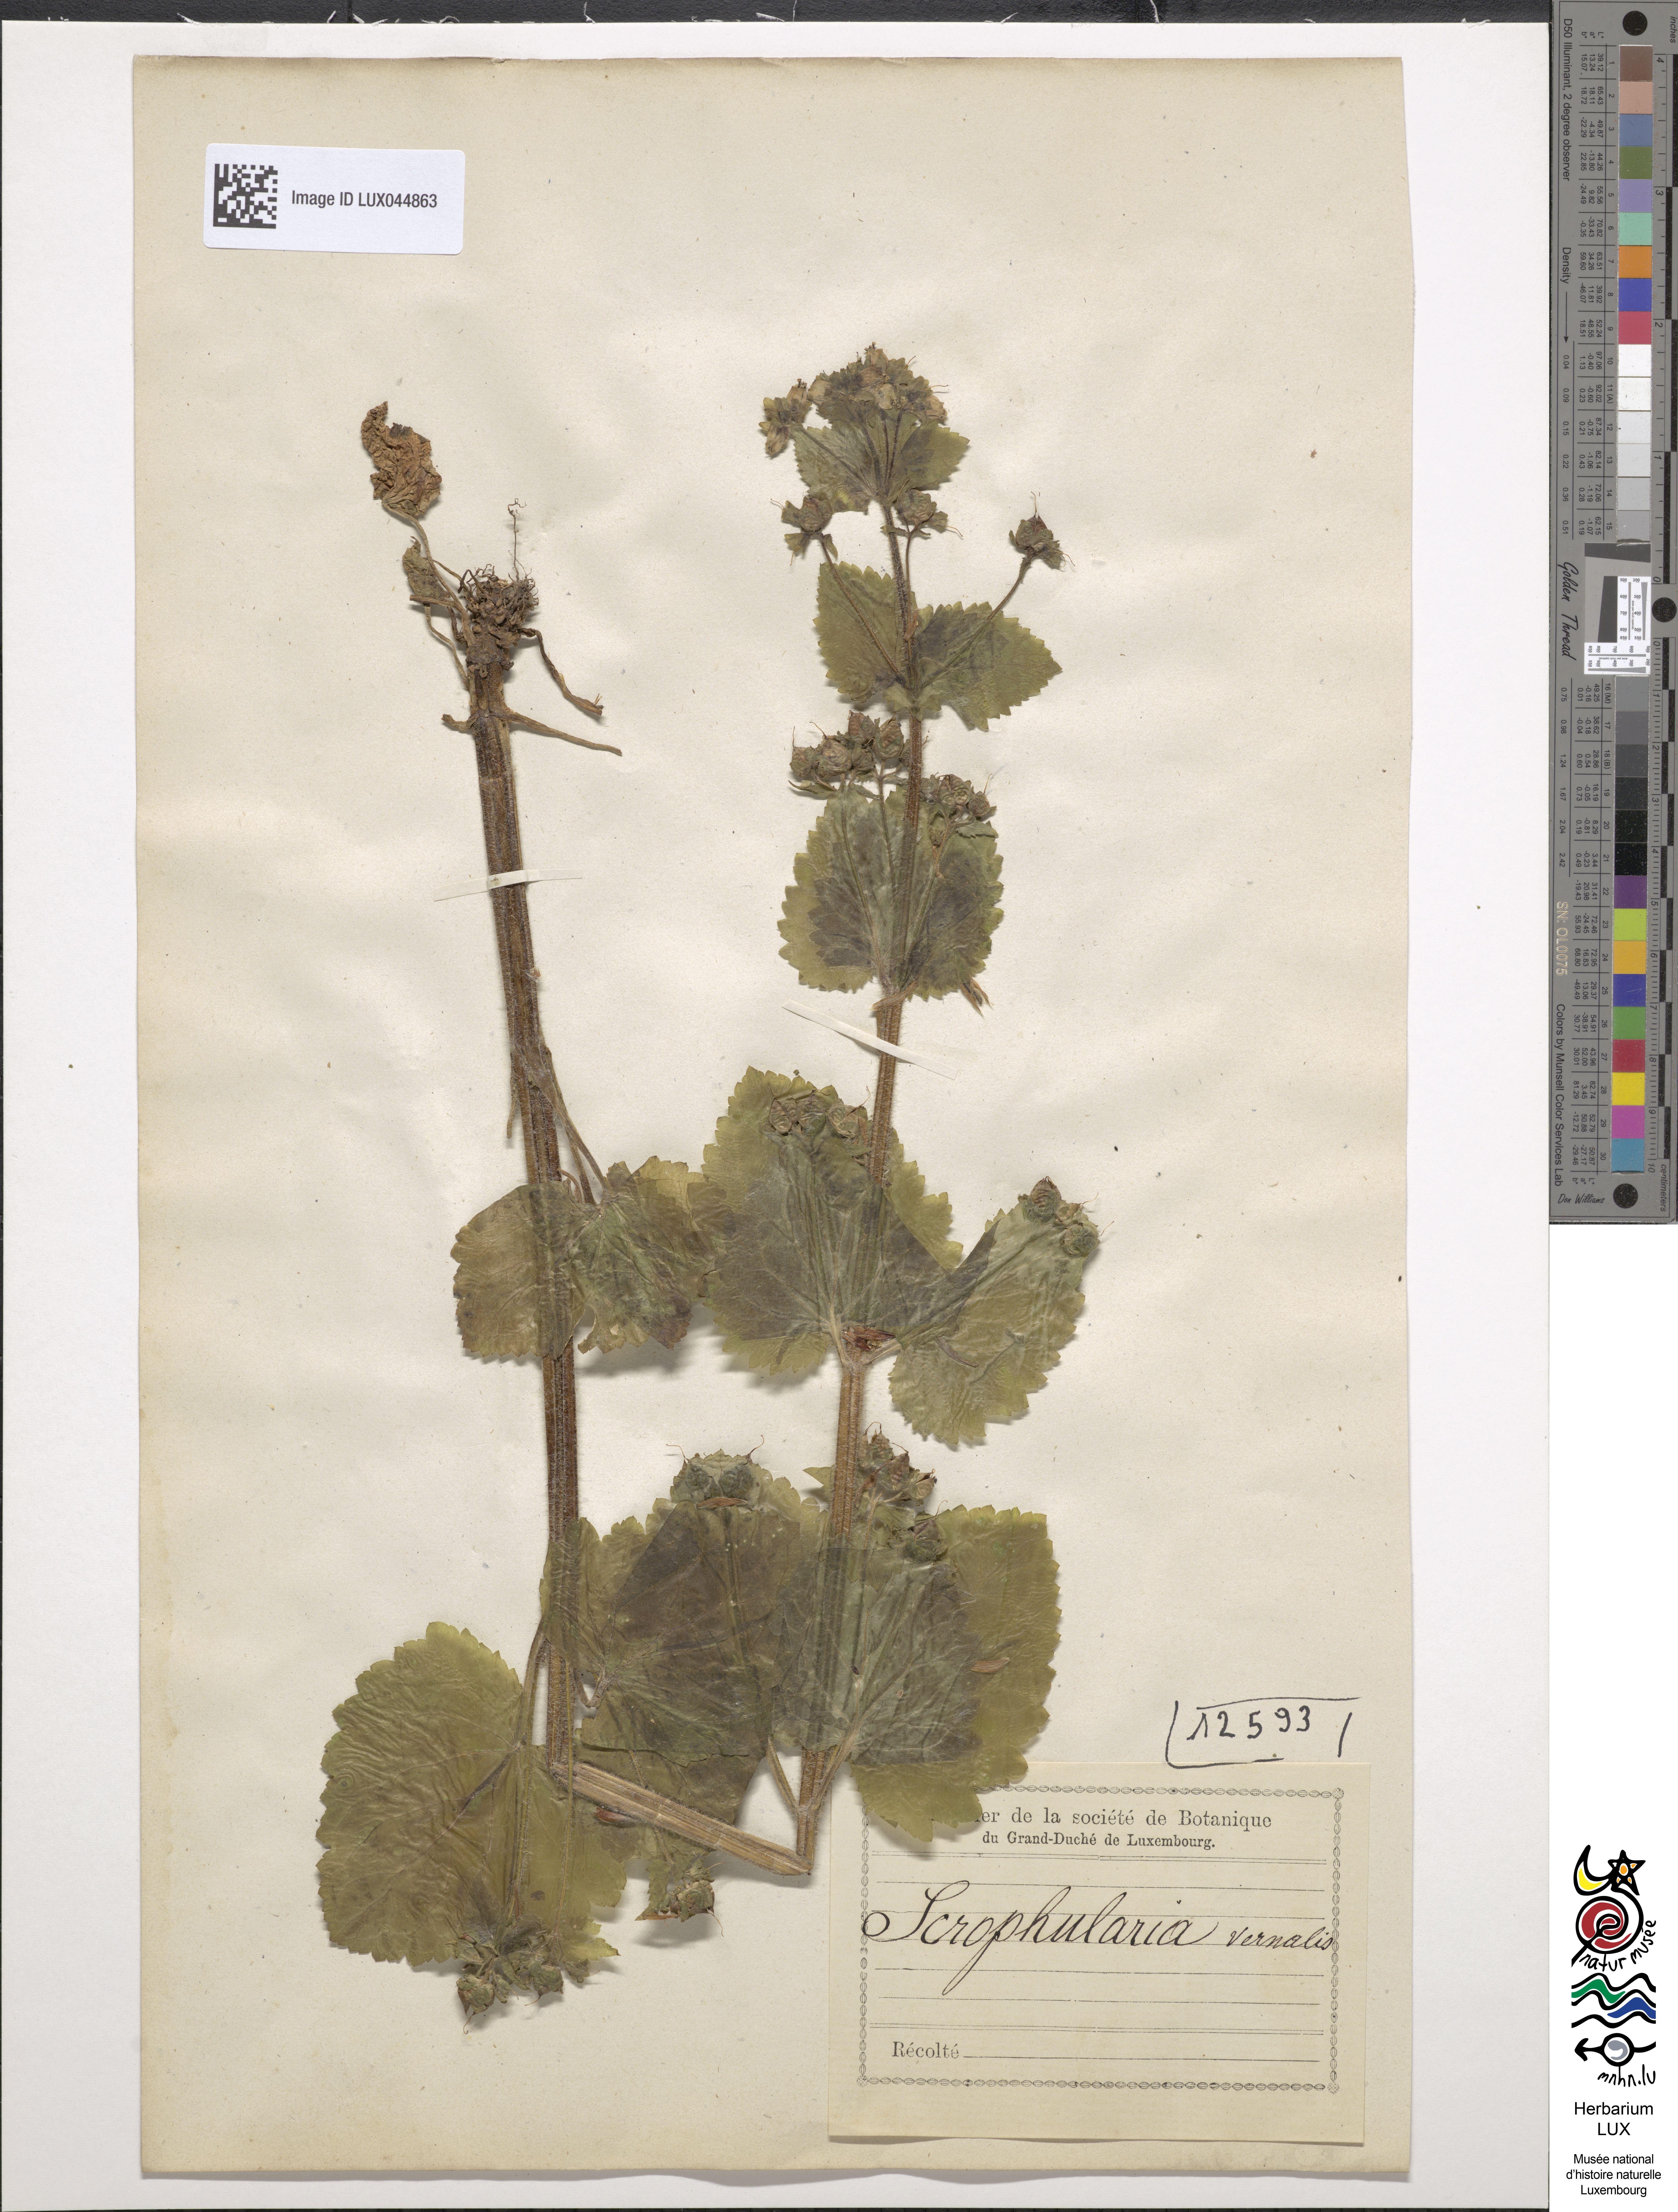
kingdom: Plantae
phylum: Tracheophyta
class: Magnoliopsida
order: Lamiales
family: Scrophulariaceae
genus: Scrophularia
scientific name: Scrophularia vernalis
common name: Yellow figwort
